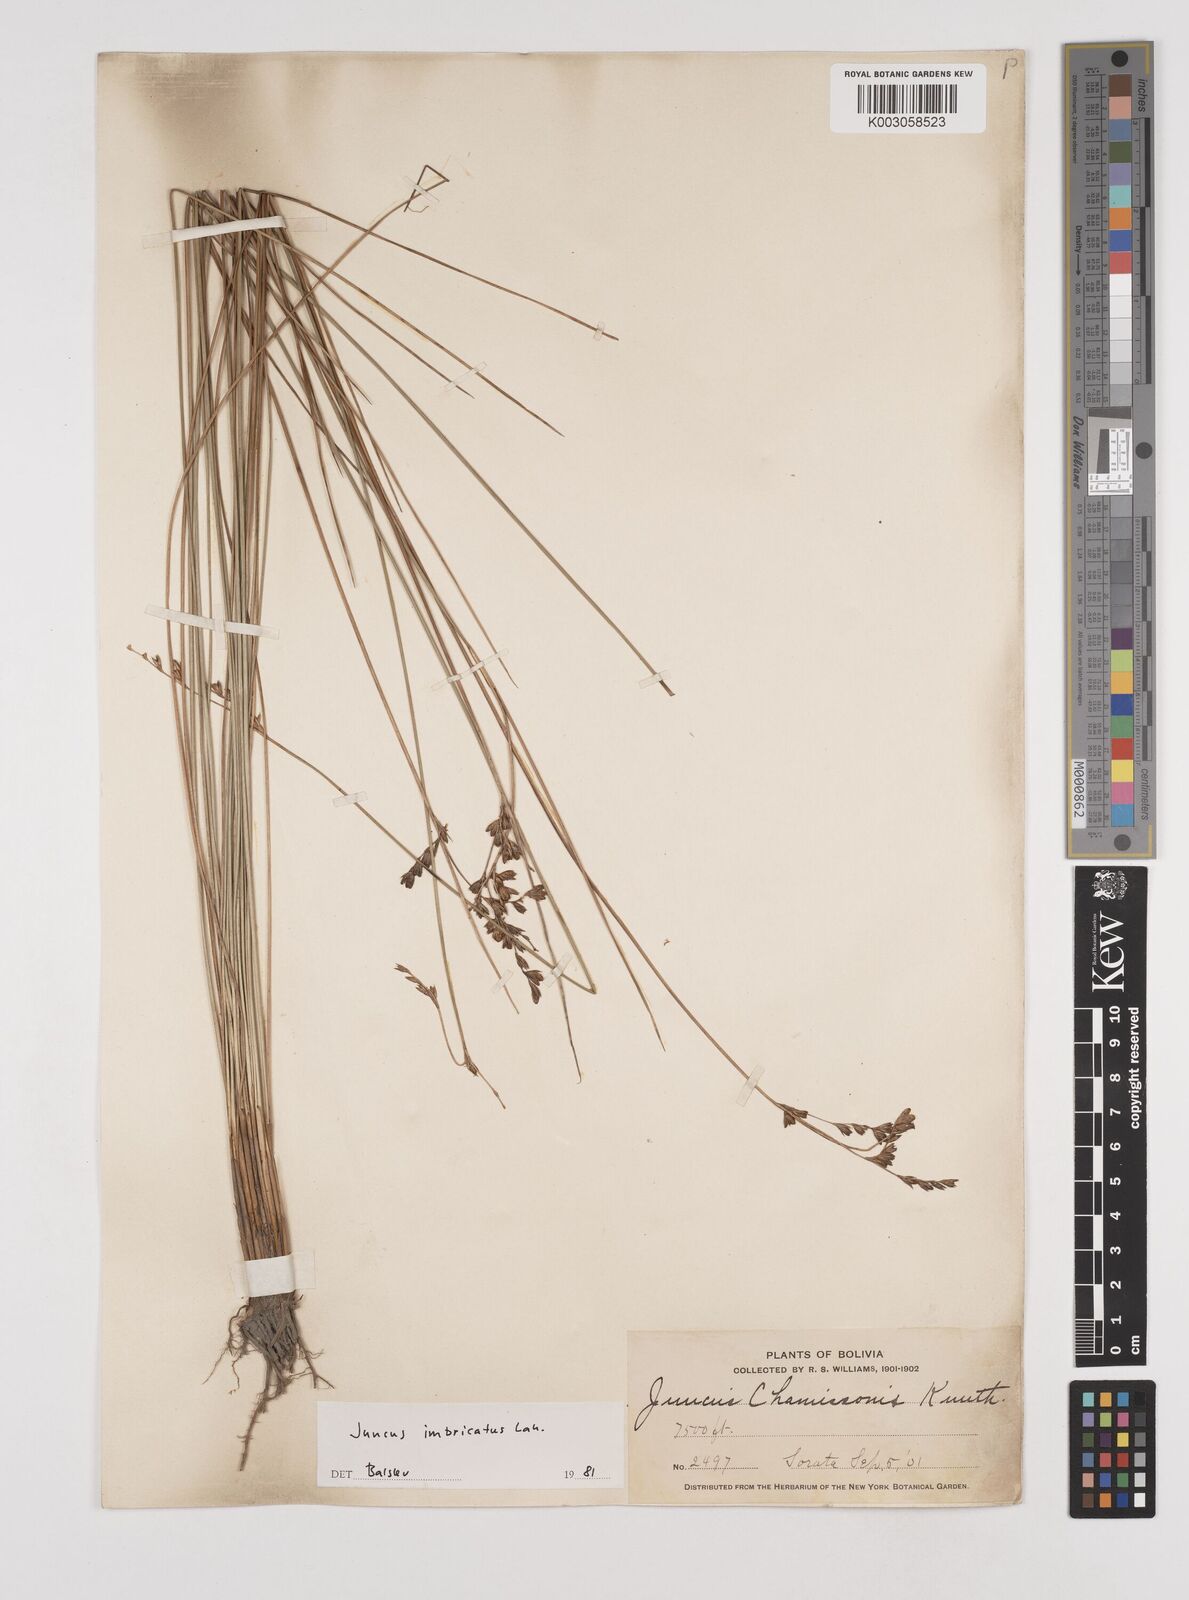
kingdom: Plantae
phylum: Tracheophyta
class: Liliopsida
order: Poales
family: Juncaceae
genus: Juncus
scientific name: Juncus imbricatus
